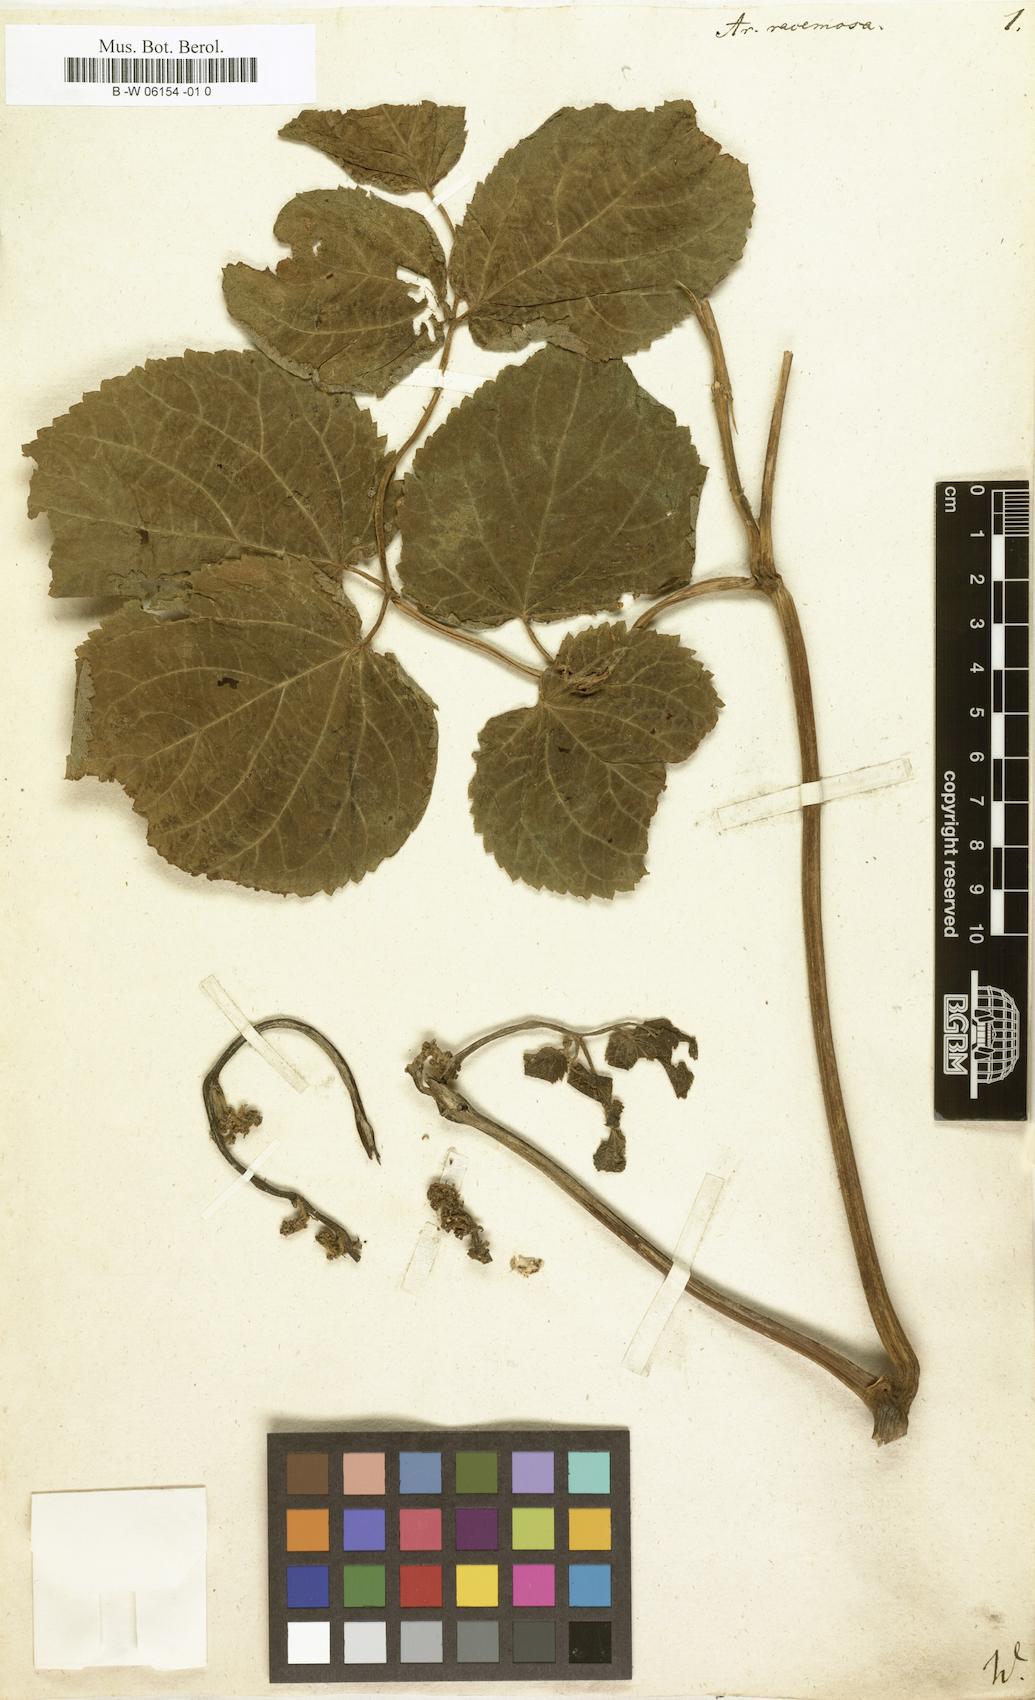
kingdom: Plantae
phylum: Tracheophyta
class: Magnoliopsida
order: Apiales
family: Araliaceae
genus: Aralia
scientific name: Aralia racemosa
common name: American-spikenard
